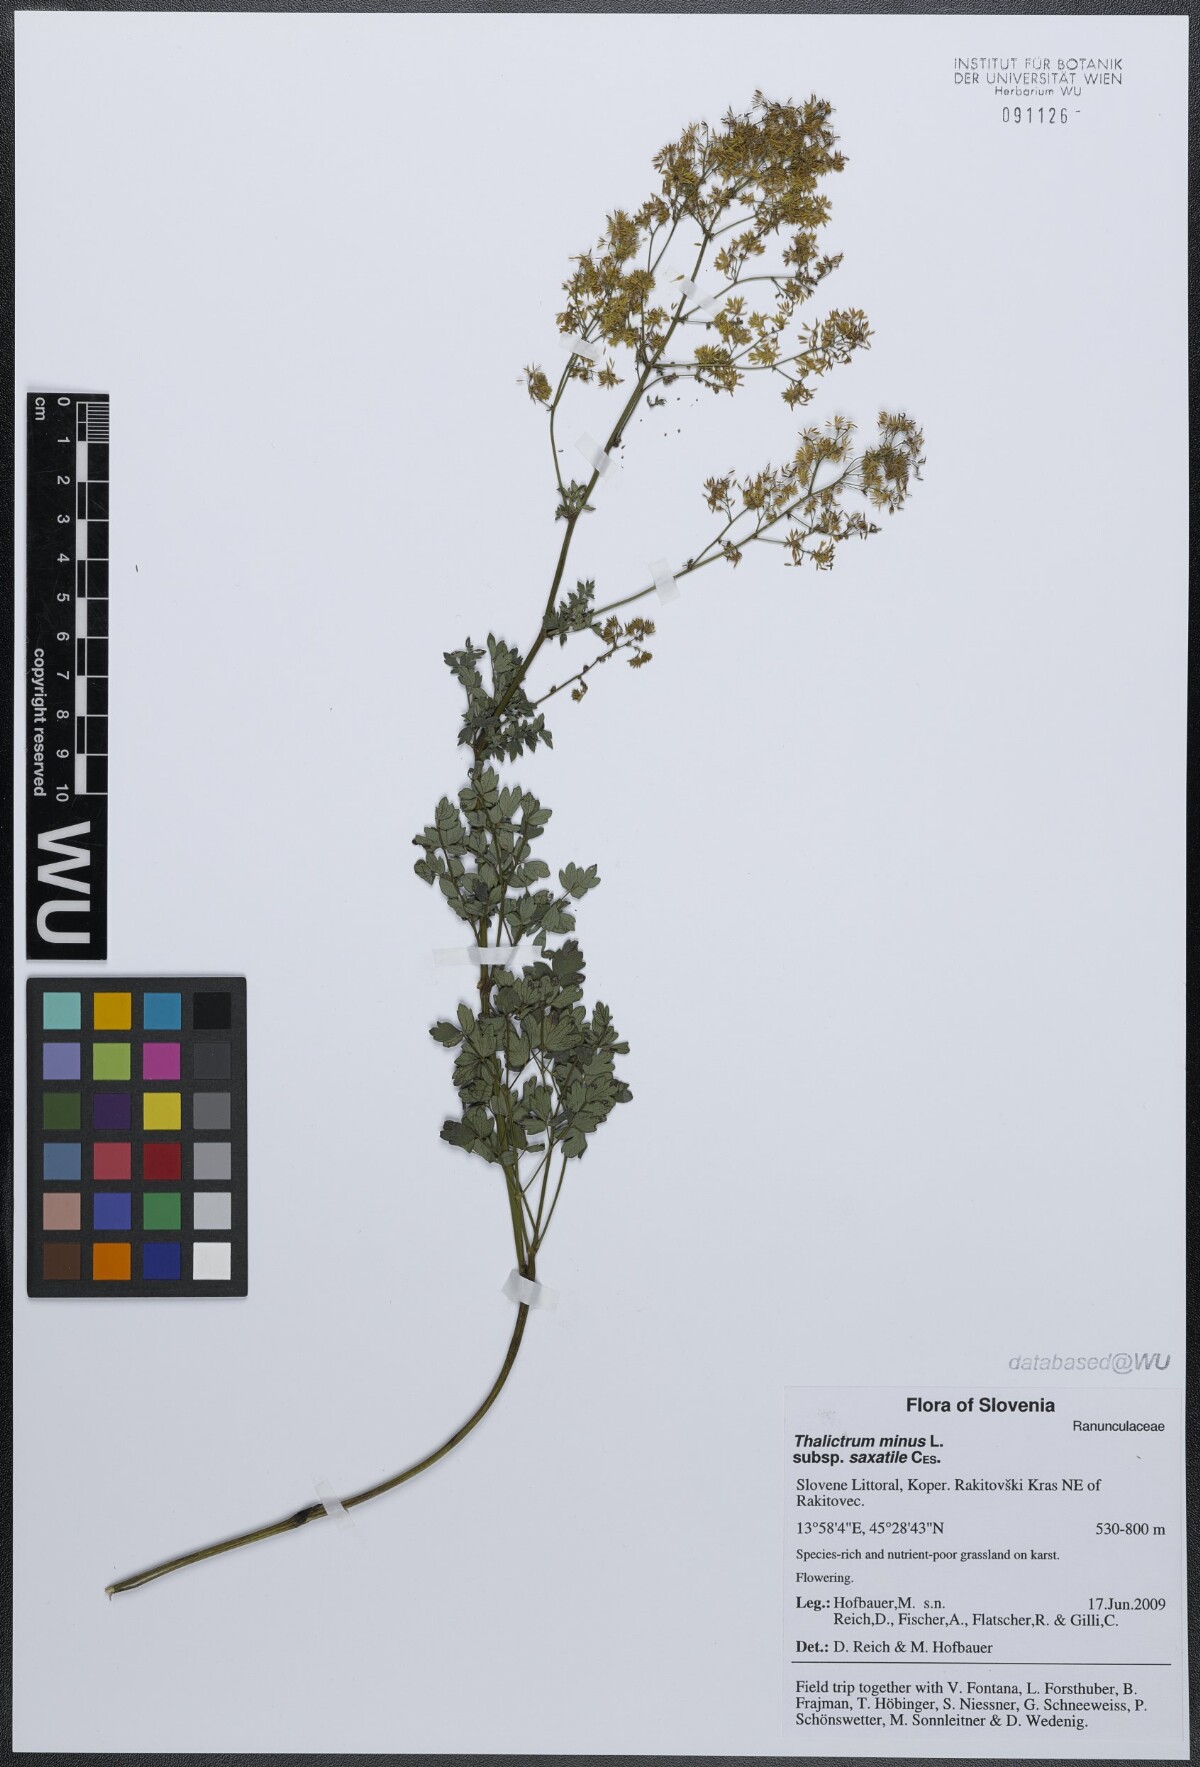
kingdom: Plantae
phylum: Tracheophyta
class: Magnoliopsida
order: Ranunculales
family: Ranunculaceae
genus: Thalictrum
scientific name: Thalictrum minus
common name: Lesser meadow-rue
